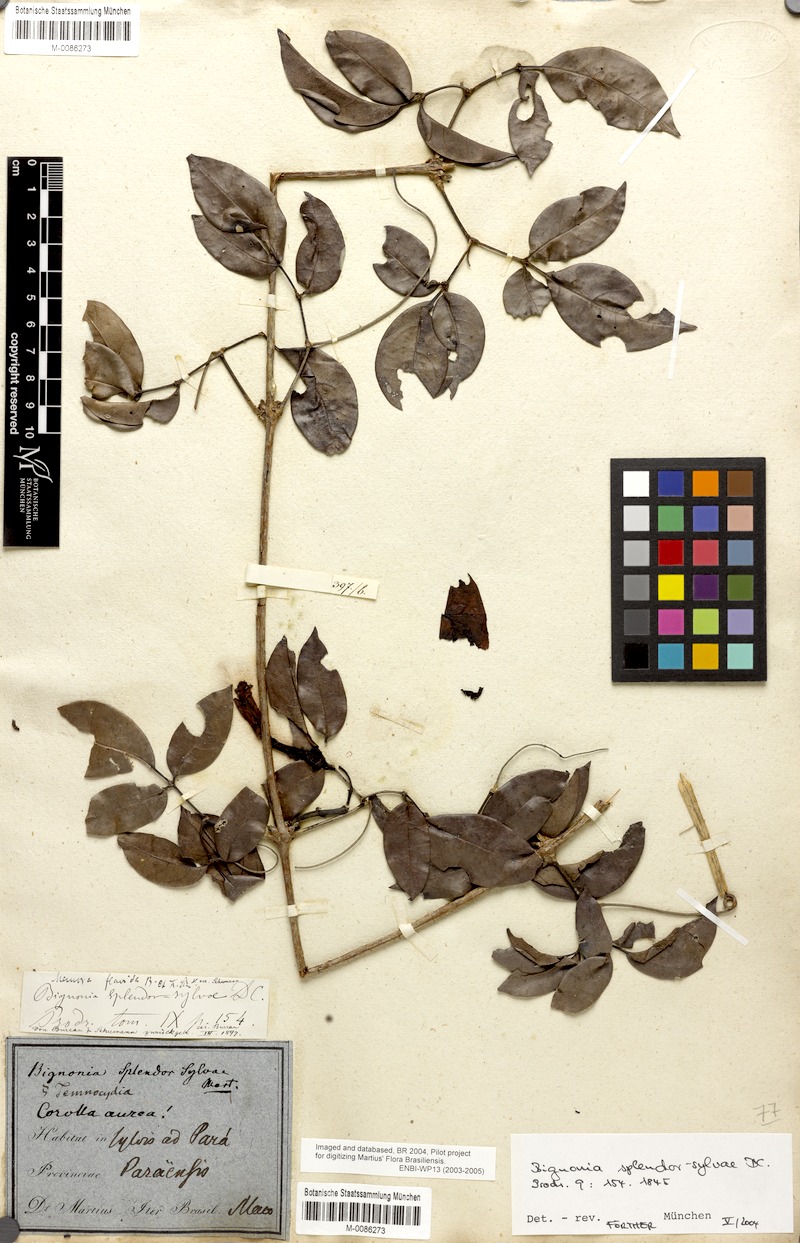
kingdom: Plantae
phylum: Tracheophyta
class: Magnoliopsida
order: Lamiales
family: Bignoniaceae
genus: Bignonia
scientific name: Bignonia splendor-sylvae
